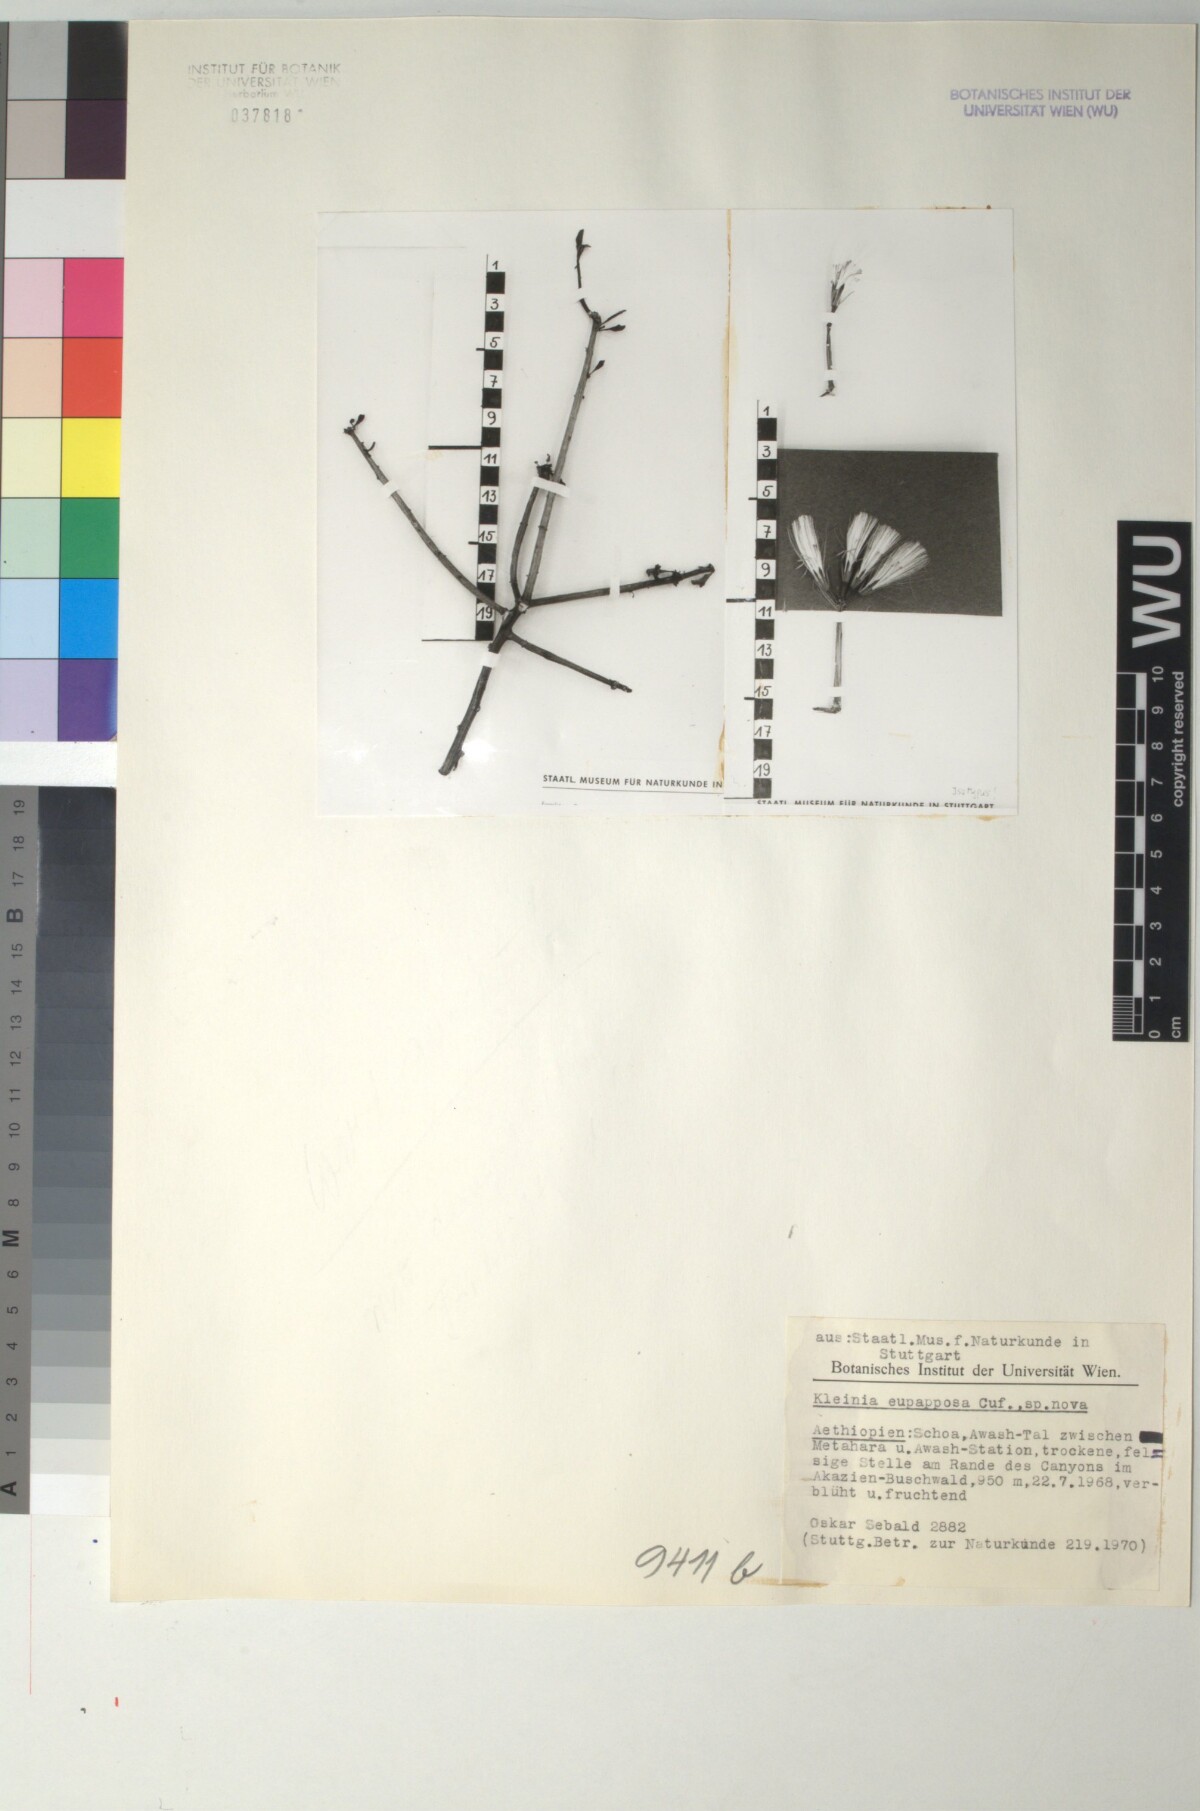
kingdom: Plantae
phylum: Tracheophyta
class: Magnoliopsida
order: Asterales
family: Asteraceae
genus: Kleinia
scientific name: Kleinia squarrosa
